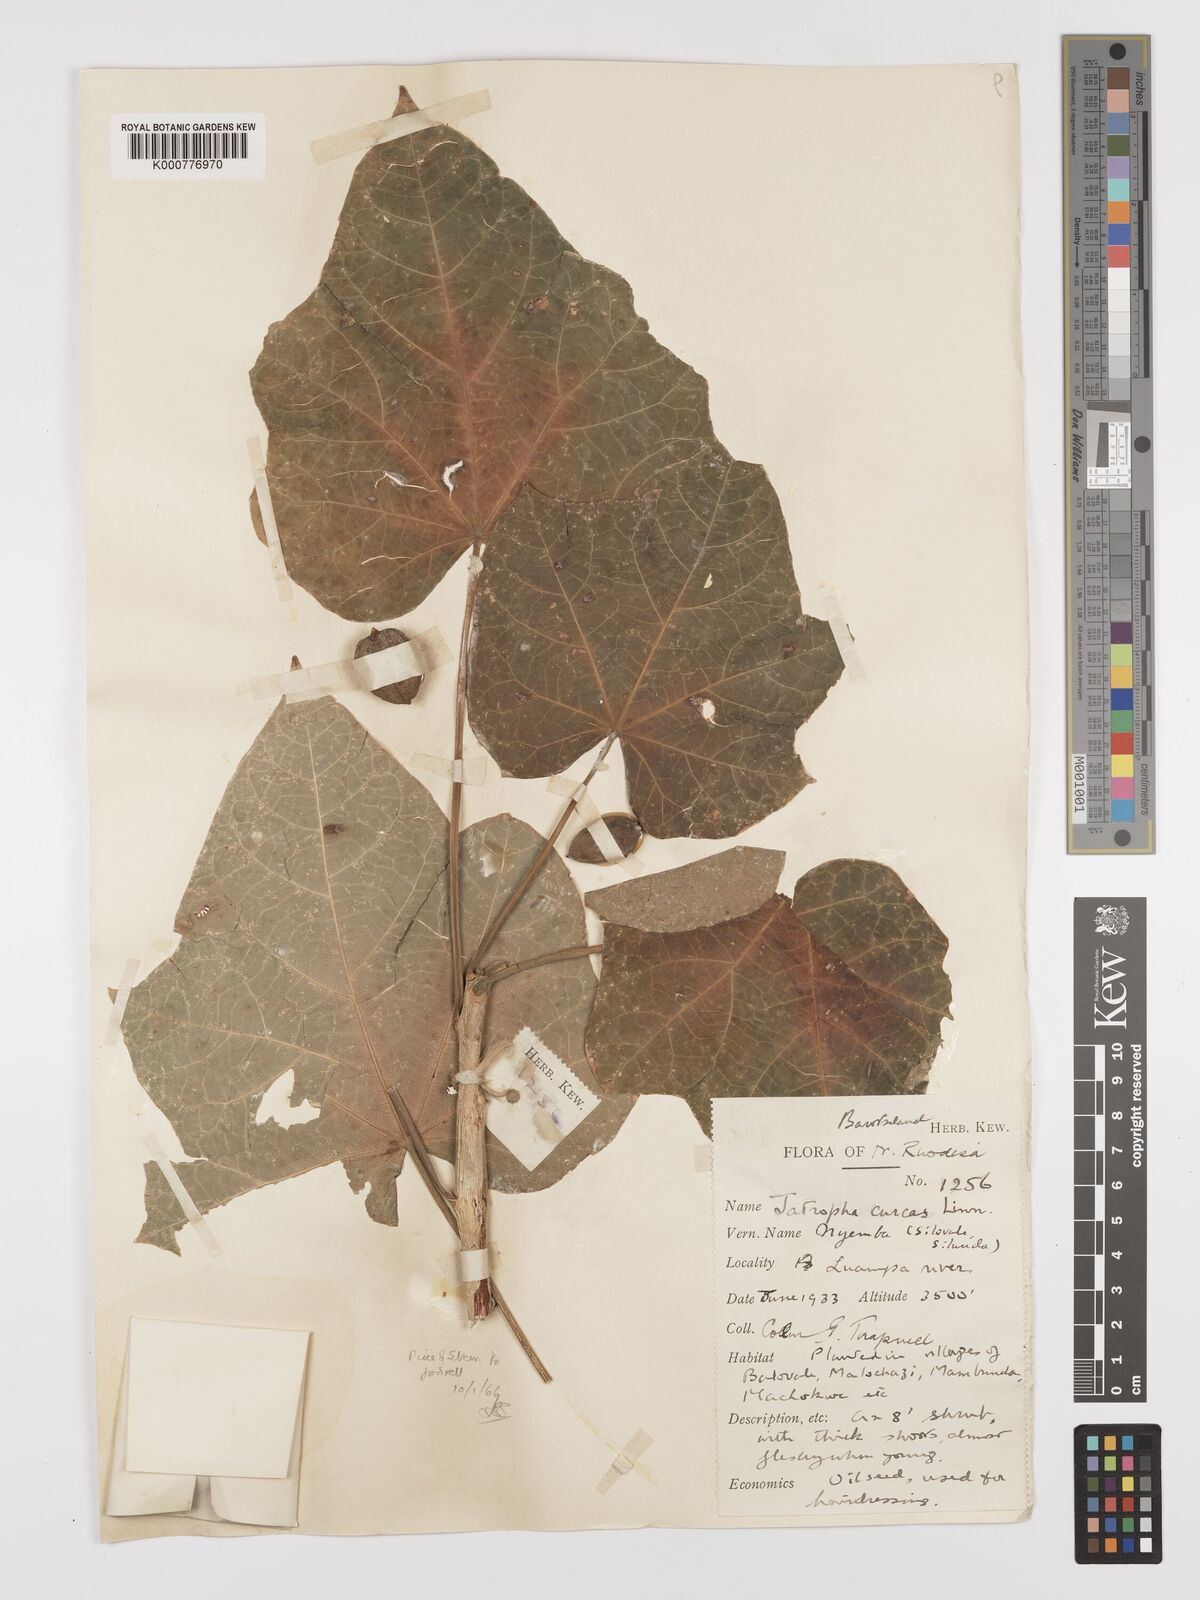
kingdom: Plantae
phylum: Tracheophyta
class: Magnoliopsida
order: Malpighiales
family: Euphorbiaceae
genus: Jatropha
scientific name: Jatropha curcas
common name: Barbados nut
